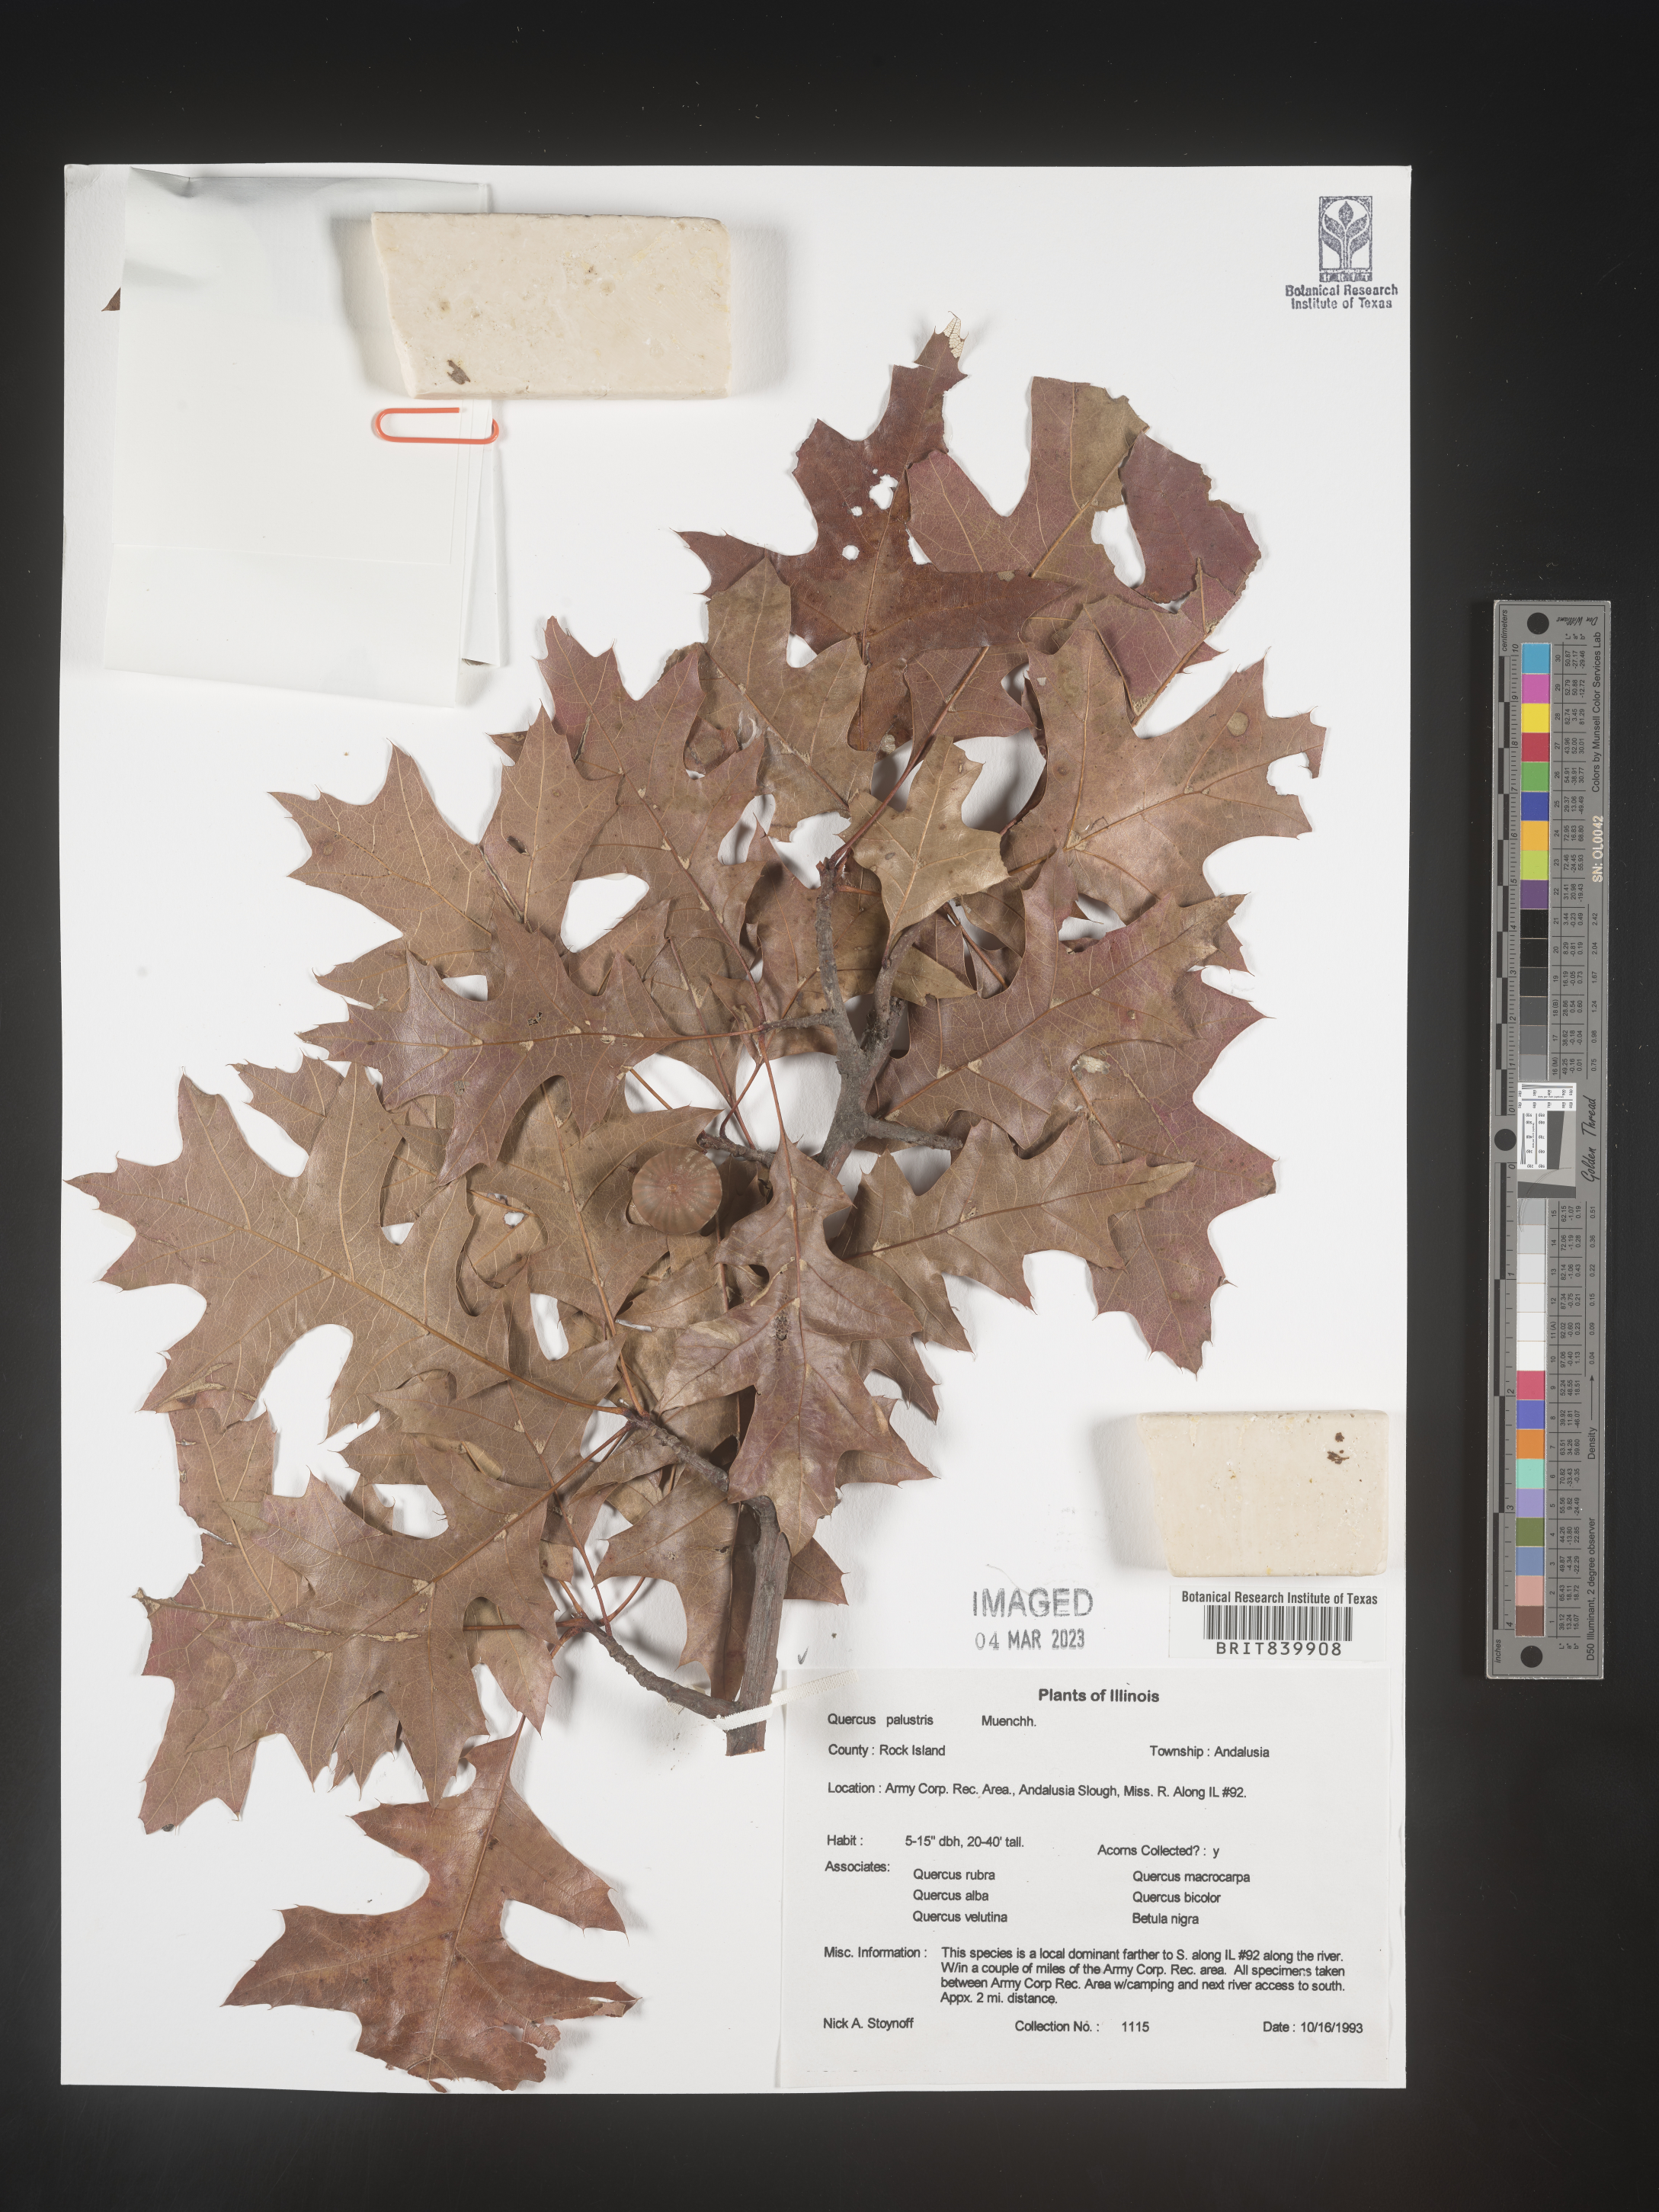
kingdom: Plantae
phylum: Tracheophyta
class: Magnoliopsida
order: Fagales
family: Fagaceae
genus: Quercus
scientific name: Quercus palustris
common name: Pin oak
